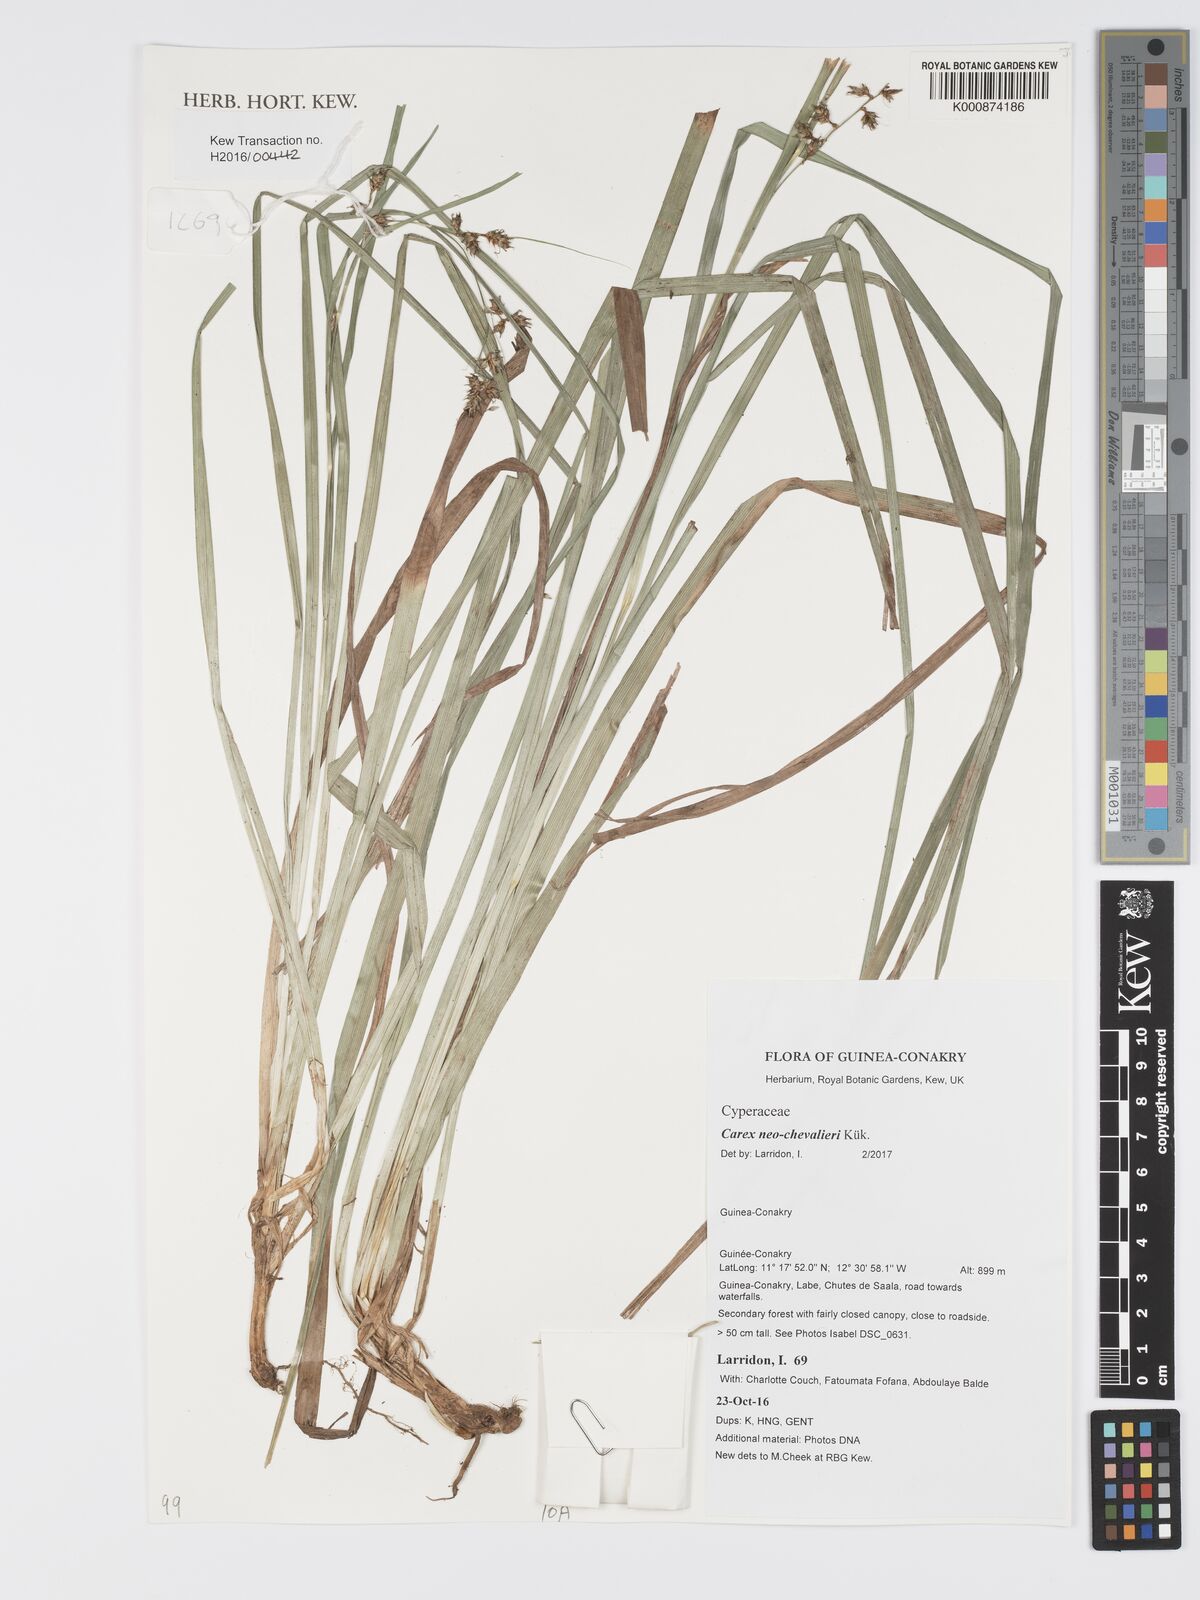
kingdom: Plantae
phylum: Tracheophyta
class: Liliopsida
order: Poales
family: Cyperaceae
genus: Carex
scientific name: Carex neochevalieri
